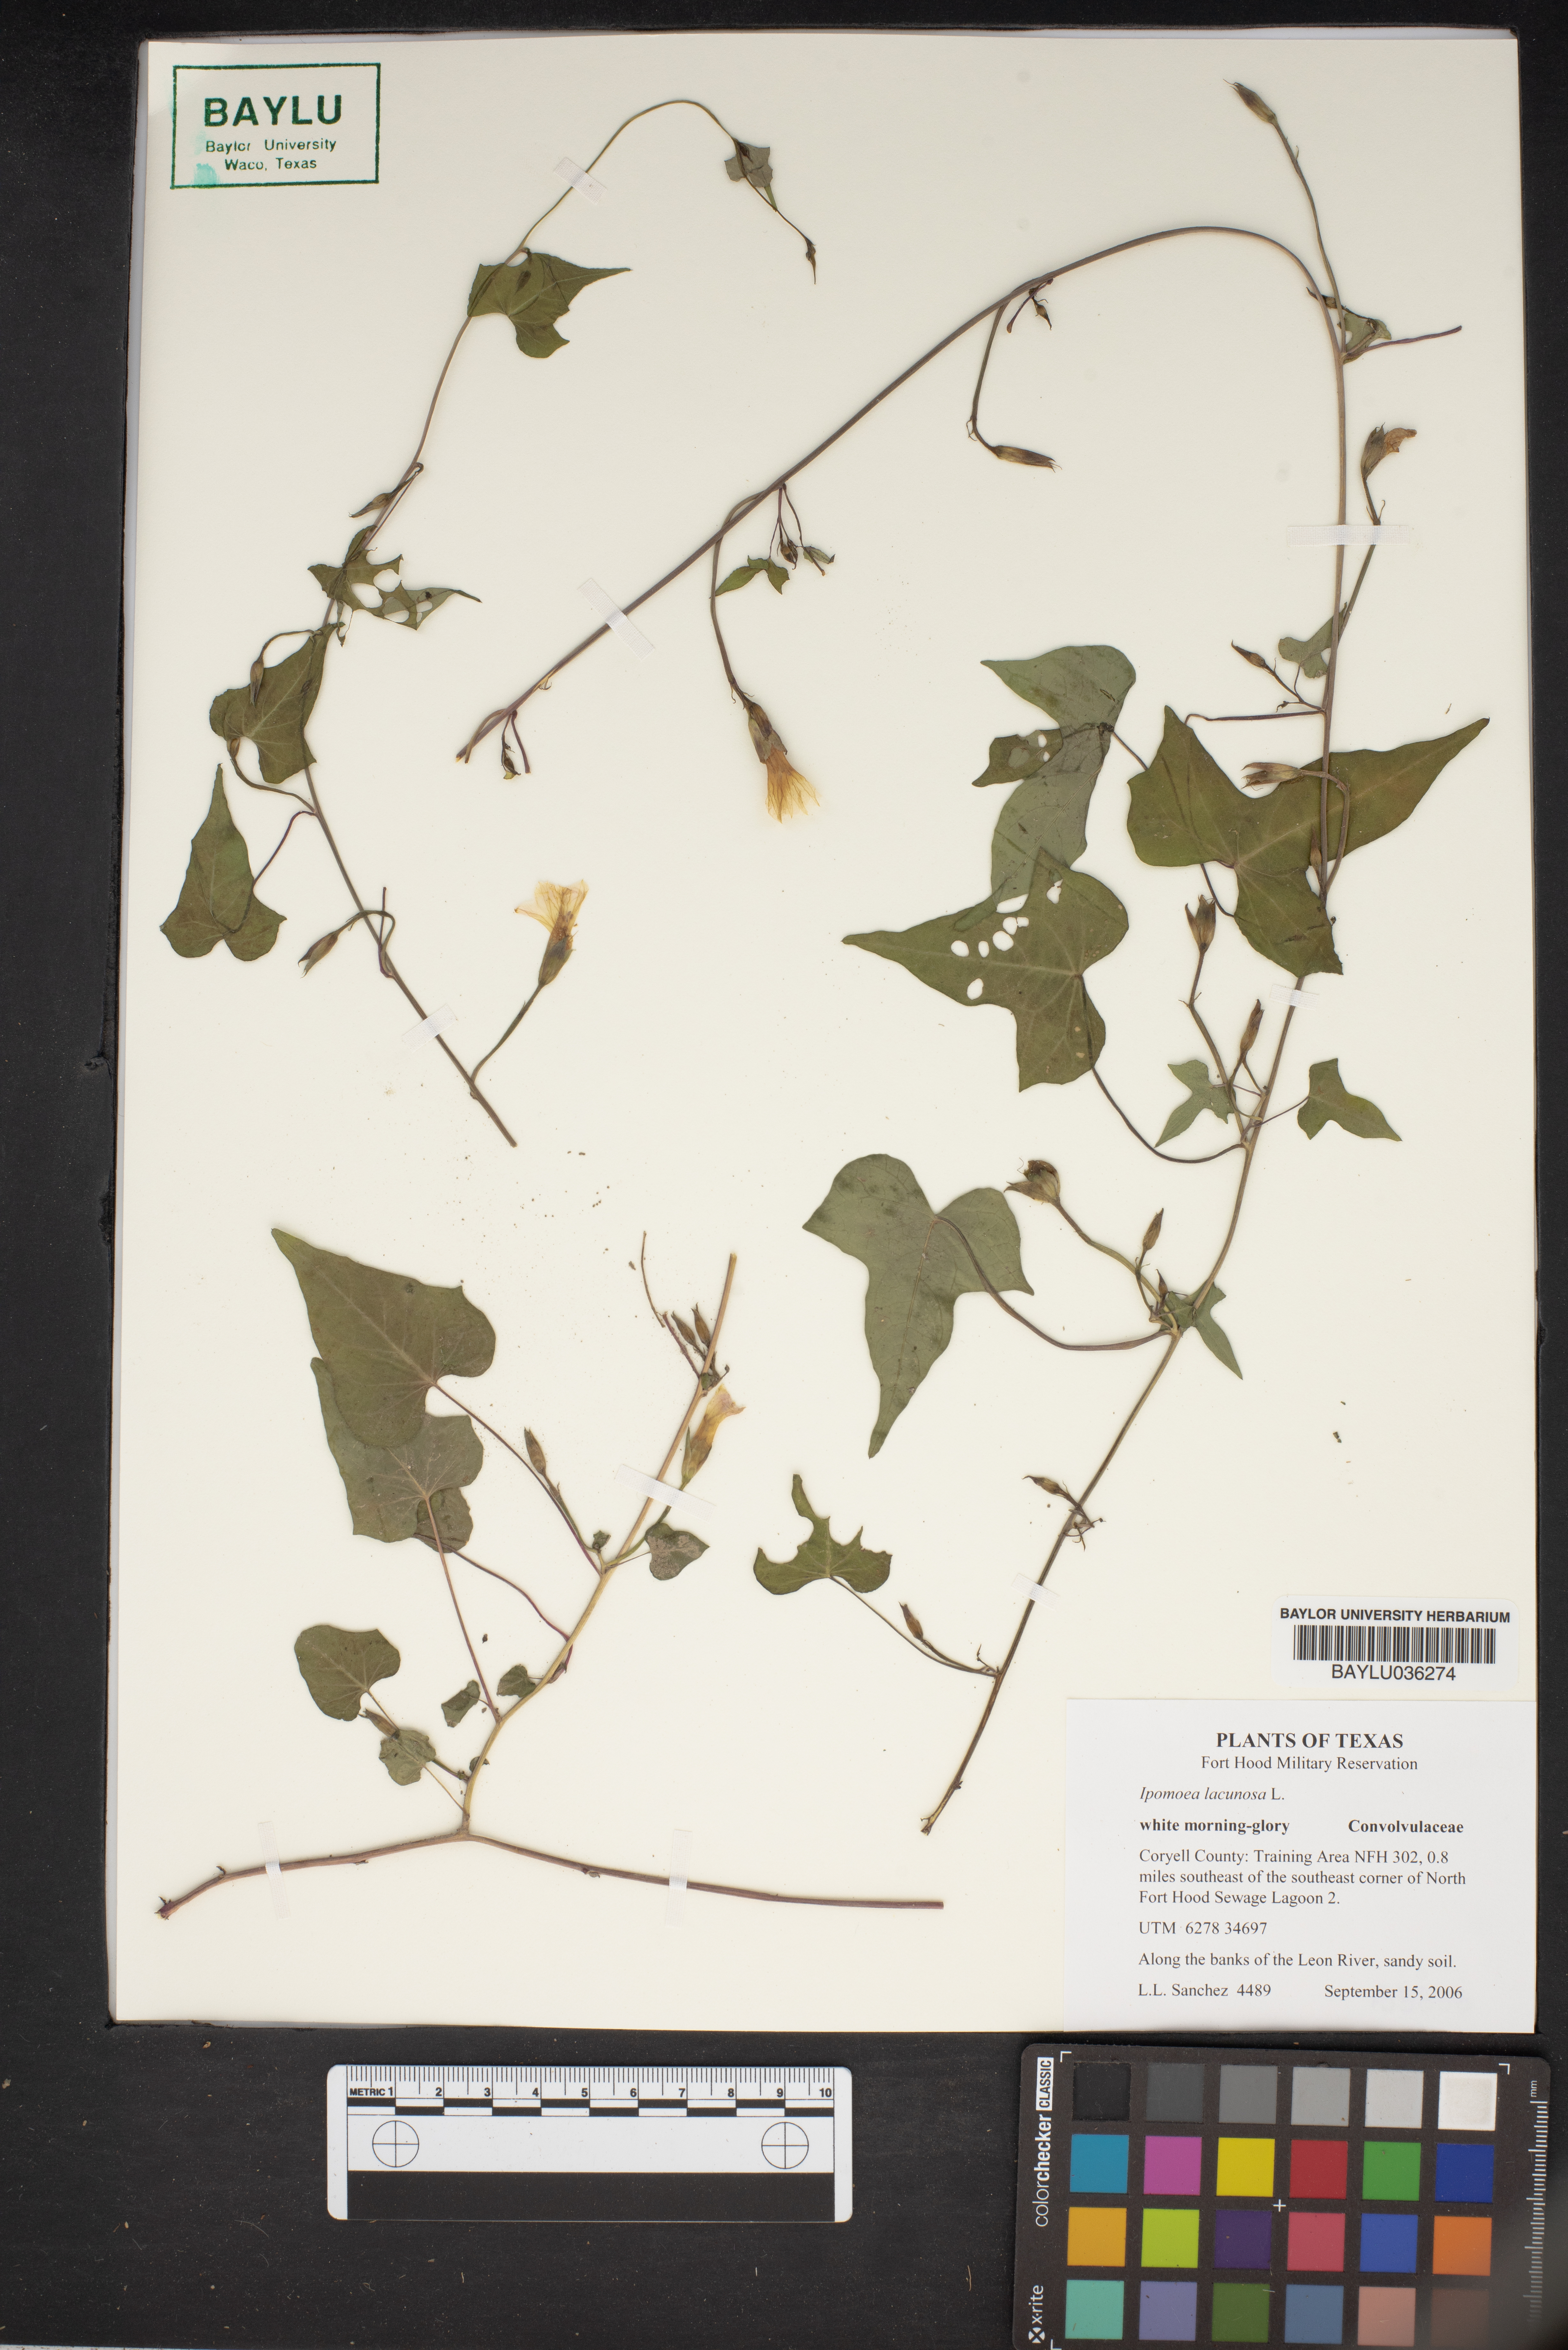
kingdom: Plantae
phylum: Tracheophyta
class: Magnoliopsida
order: Solanales
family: Convolvulaceae
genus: Ipomoea
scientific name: Ipomoea lacunosa
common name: White morning-glory
